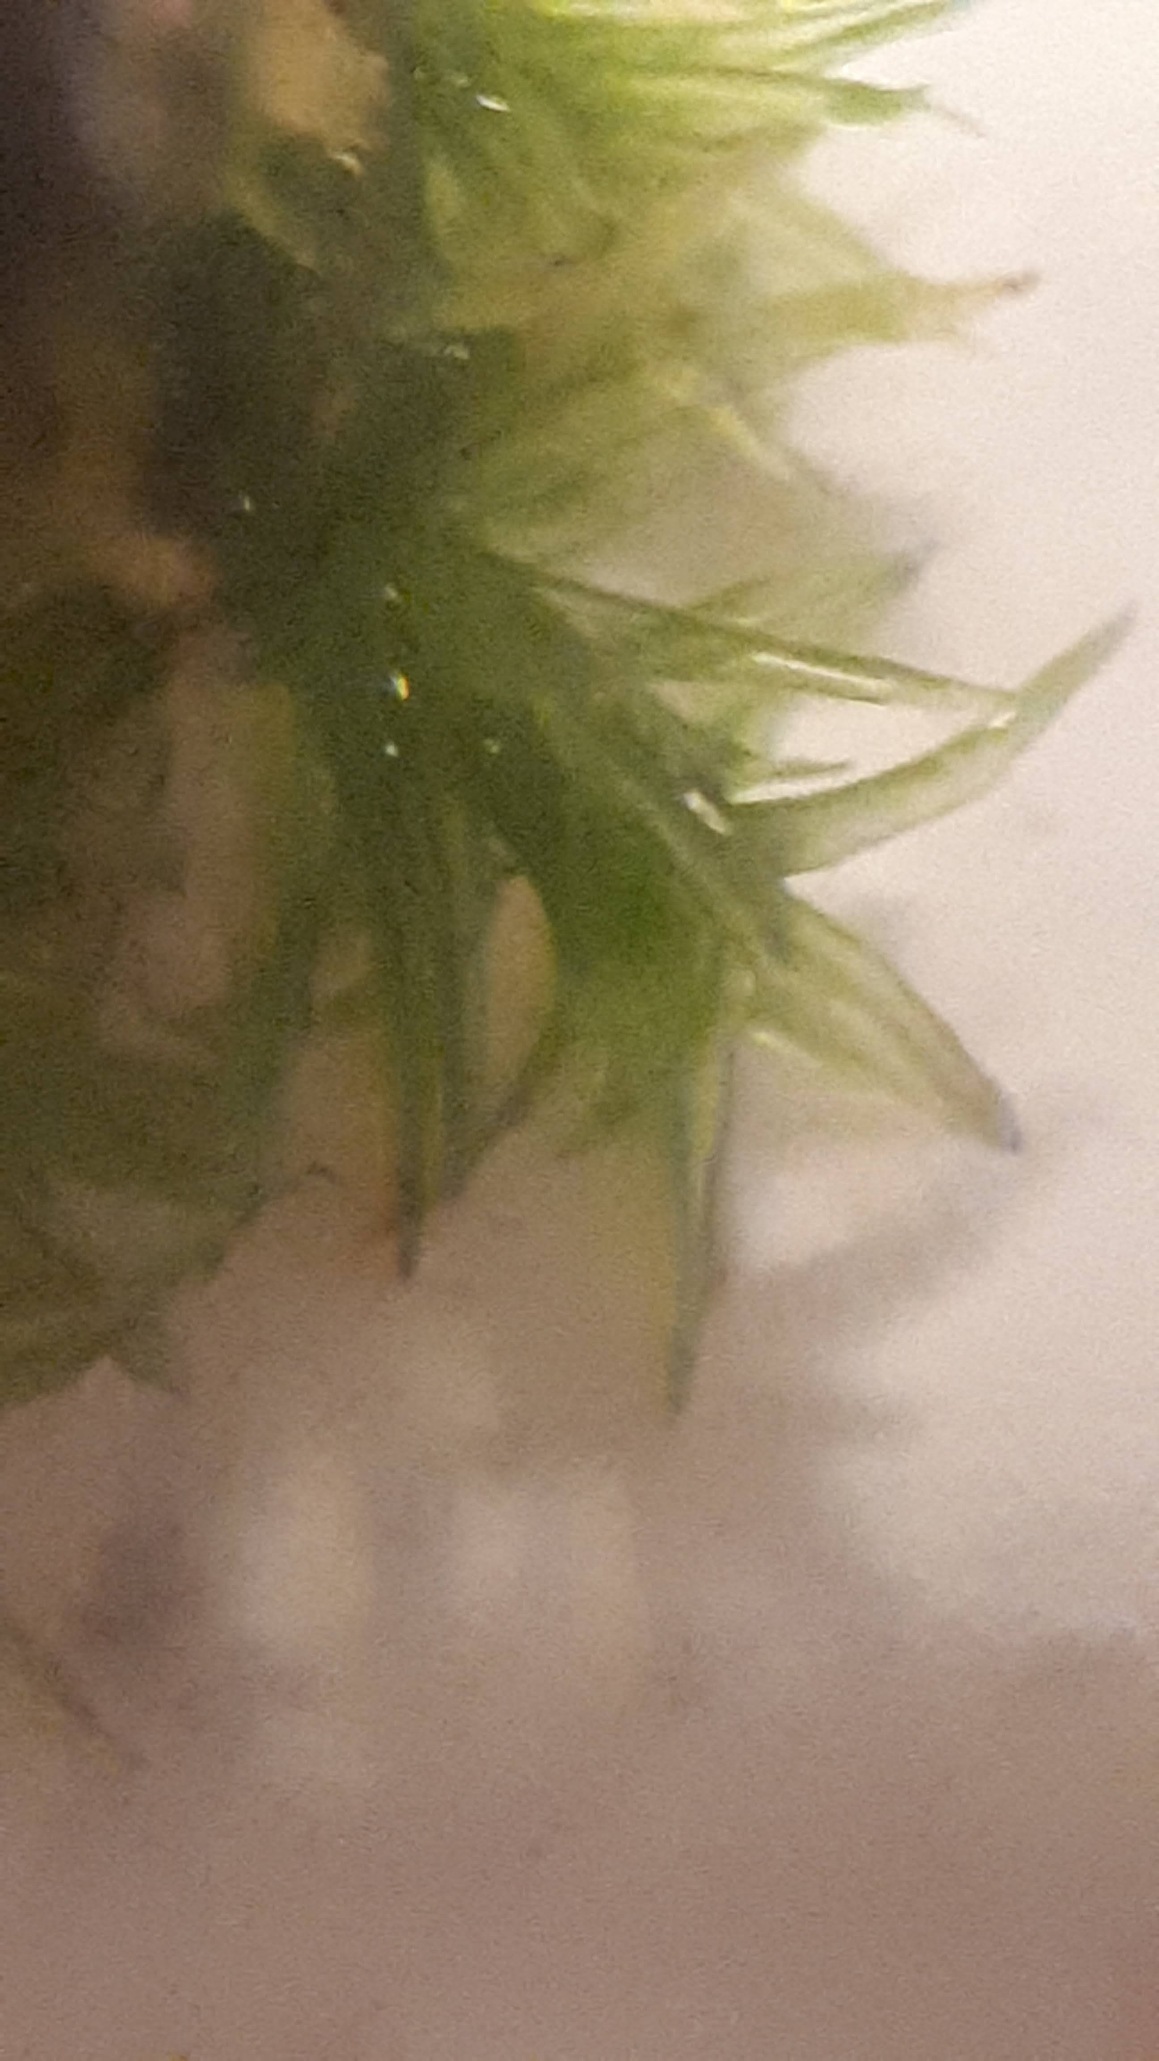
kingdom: Plantae
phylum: Bryophyta
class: Bryopsida
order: Orthotrichales
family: Orthotrichaceae
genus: Orthotrichum
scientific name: Orthotrichum
